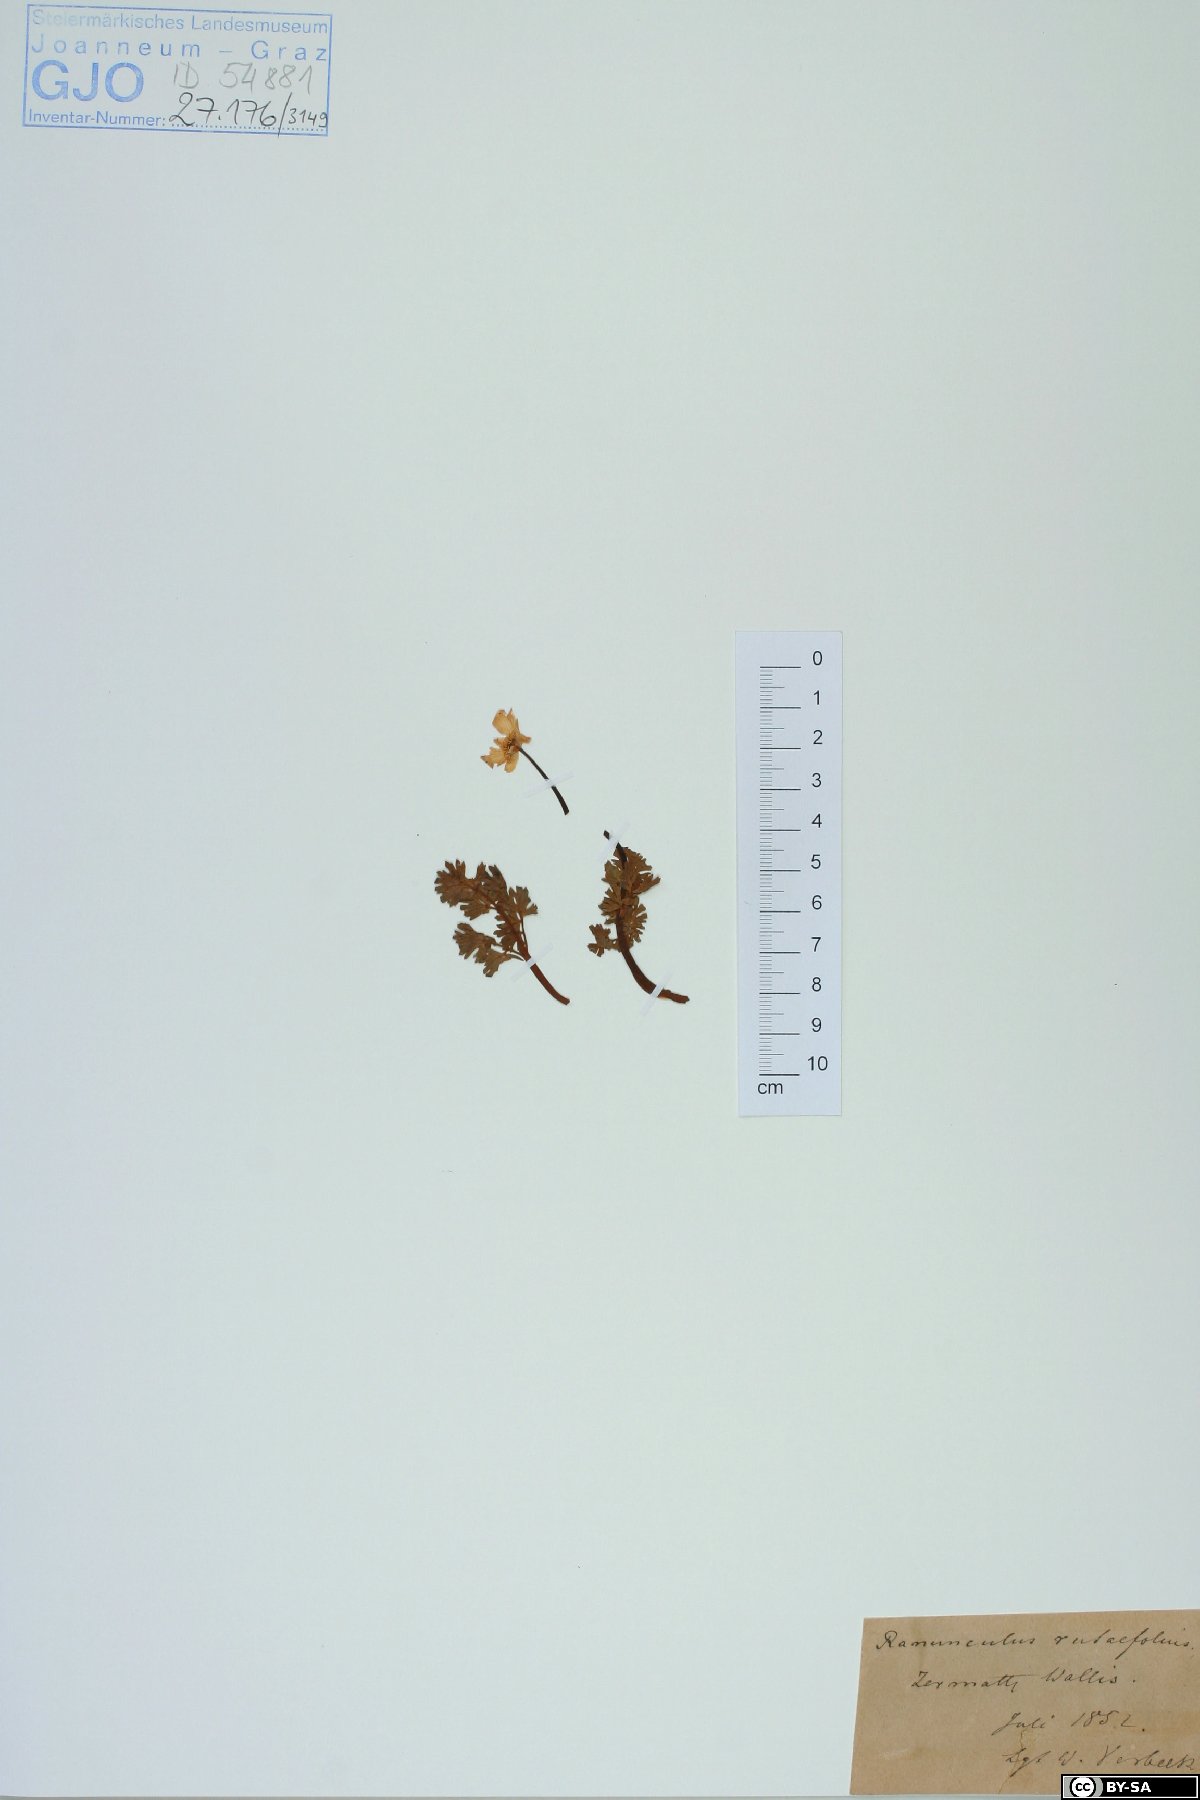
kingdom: Plantae
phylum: Tracheophyta
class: Magnoliopsida
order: Ranunculales
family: Ranunculaceae
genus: Callianthemum
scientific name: Callianthemum anemonoides
